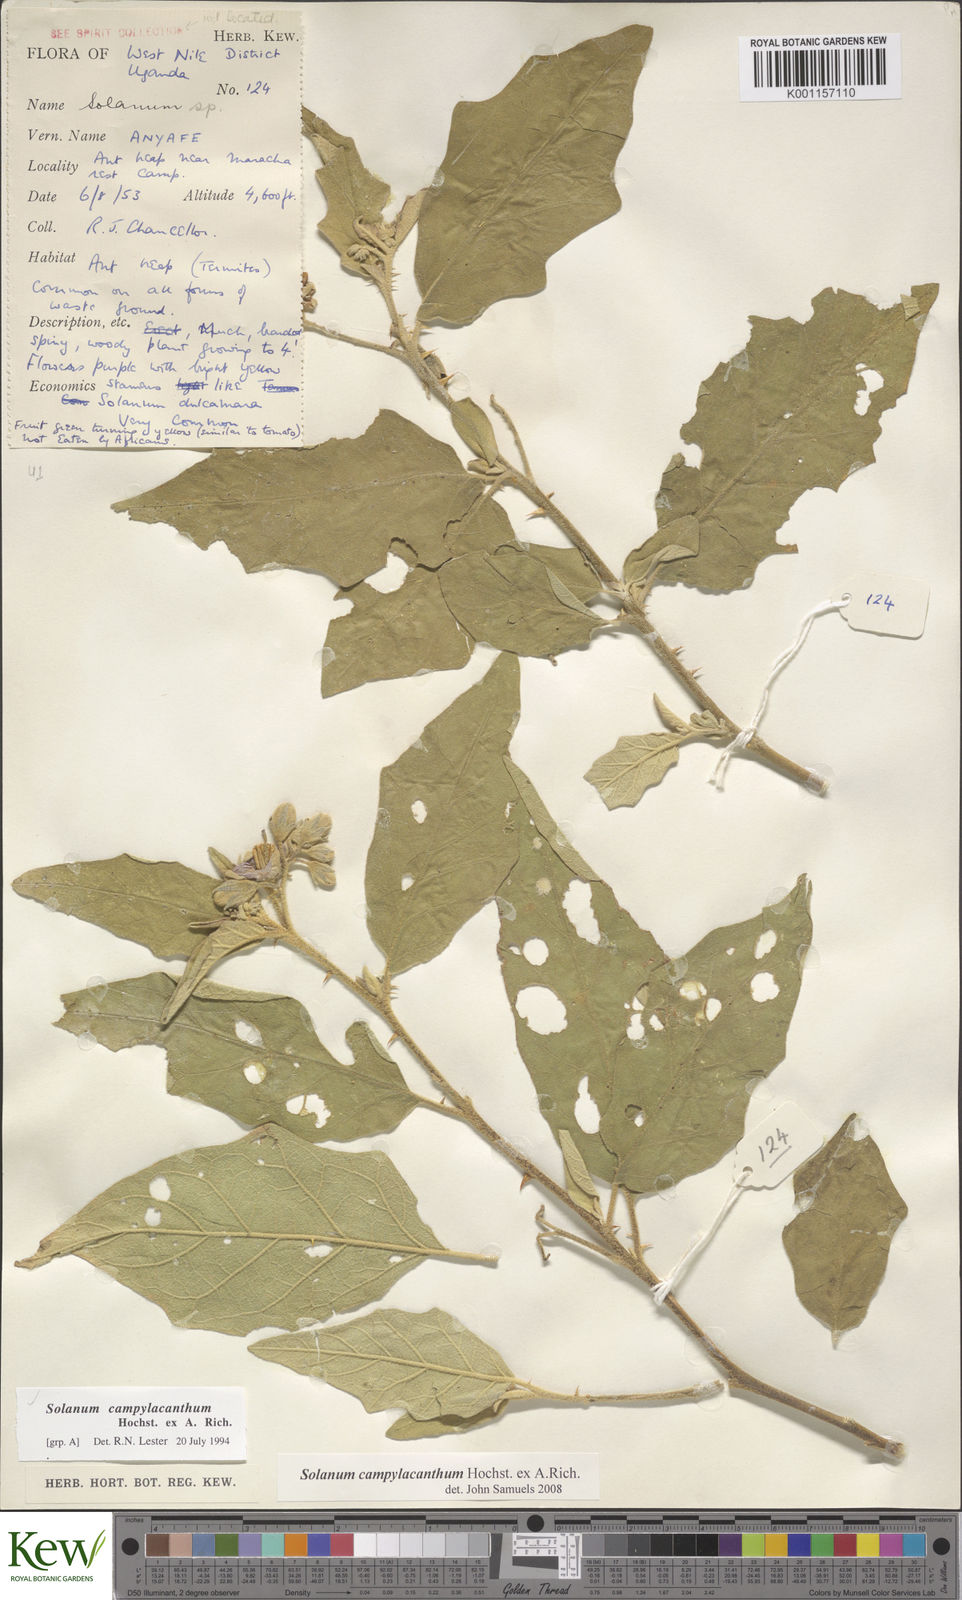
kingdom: Plantae
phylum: Tracheophyta
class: Magnoliopsida
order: Solanales
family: Solanaceae
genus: Solanum
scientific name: Solanum campylacanthum
